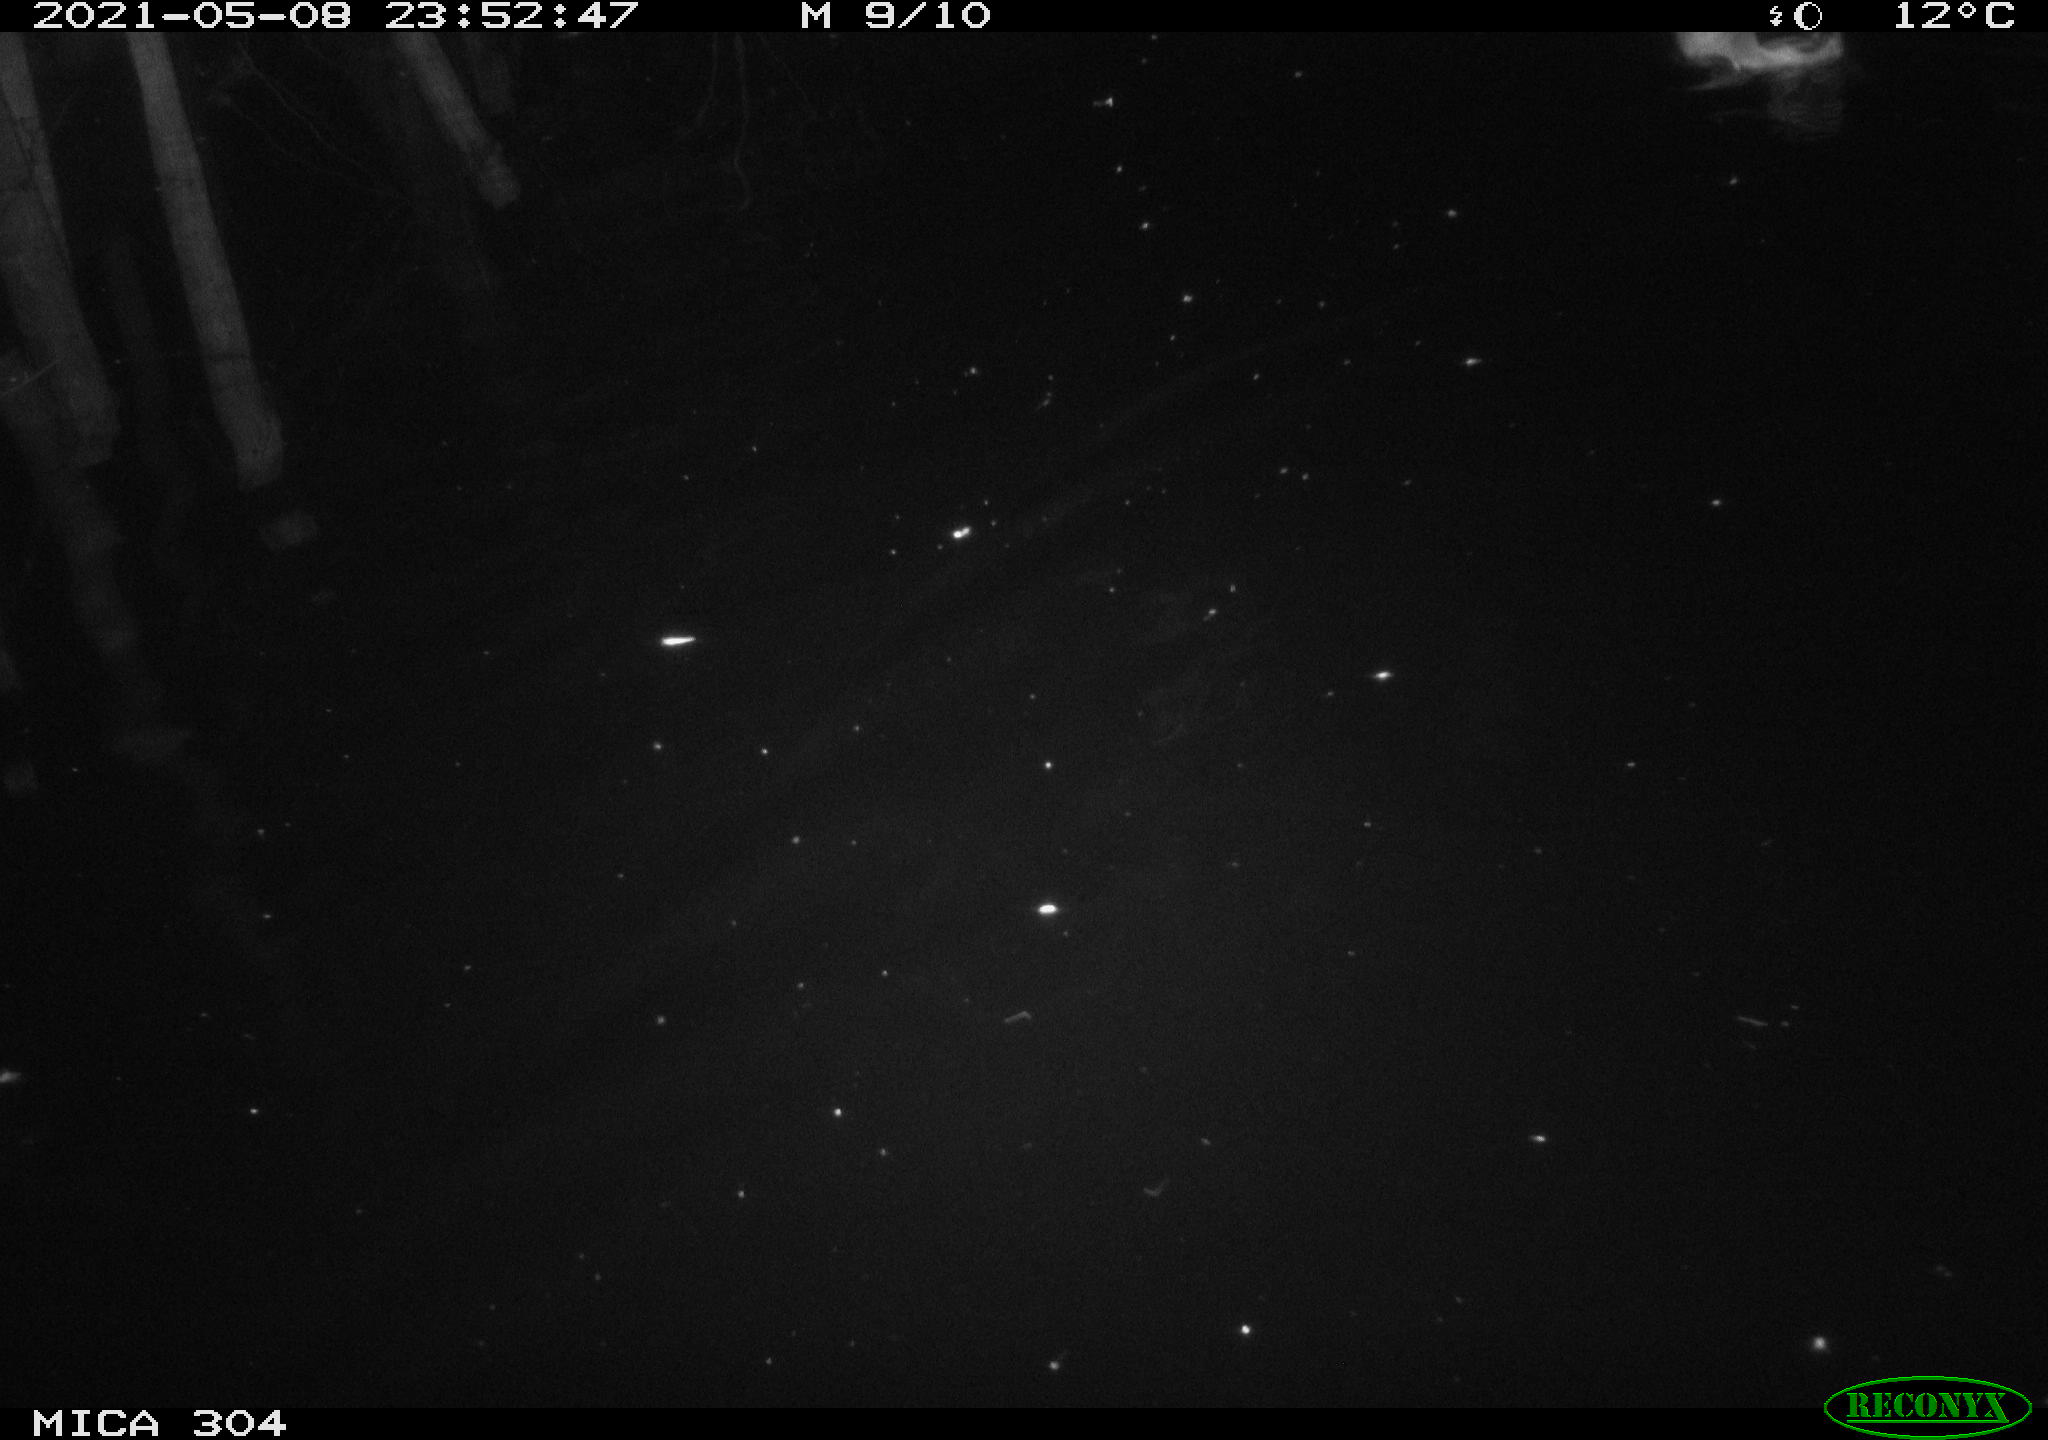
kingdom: Animalia
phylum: Chordata
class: Aves
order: Anseriformes
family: Anatidae
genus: Anas
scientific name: Anas platyrhynchos
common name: Mallard
